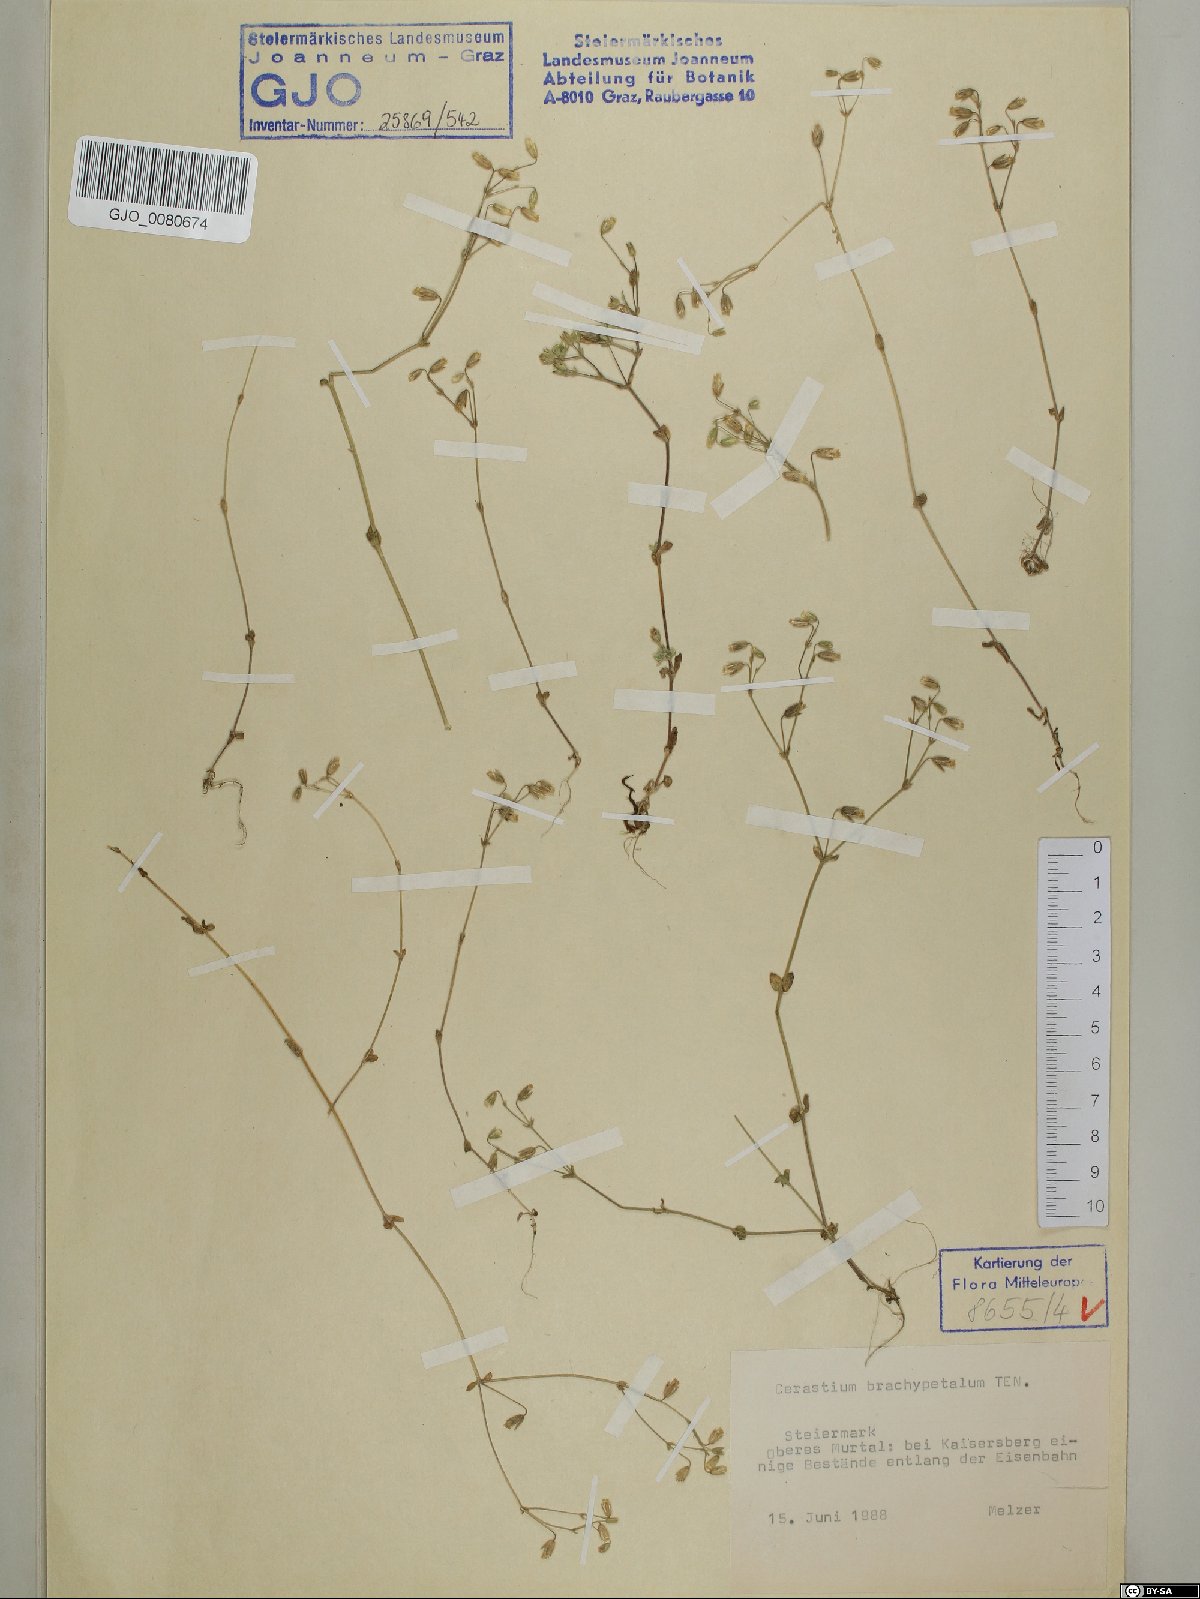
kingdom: Plantae
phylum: Tracheophyta
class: Magnoliopsida
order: Caryophyllales
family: Caryophyllaceae
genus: Cerastium
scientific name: Cerastium brachypetalum
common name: Grey mouse-ear
